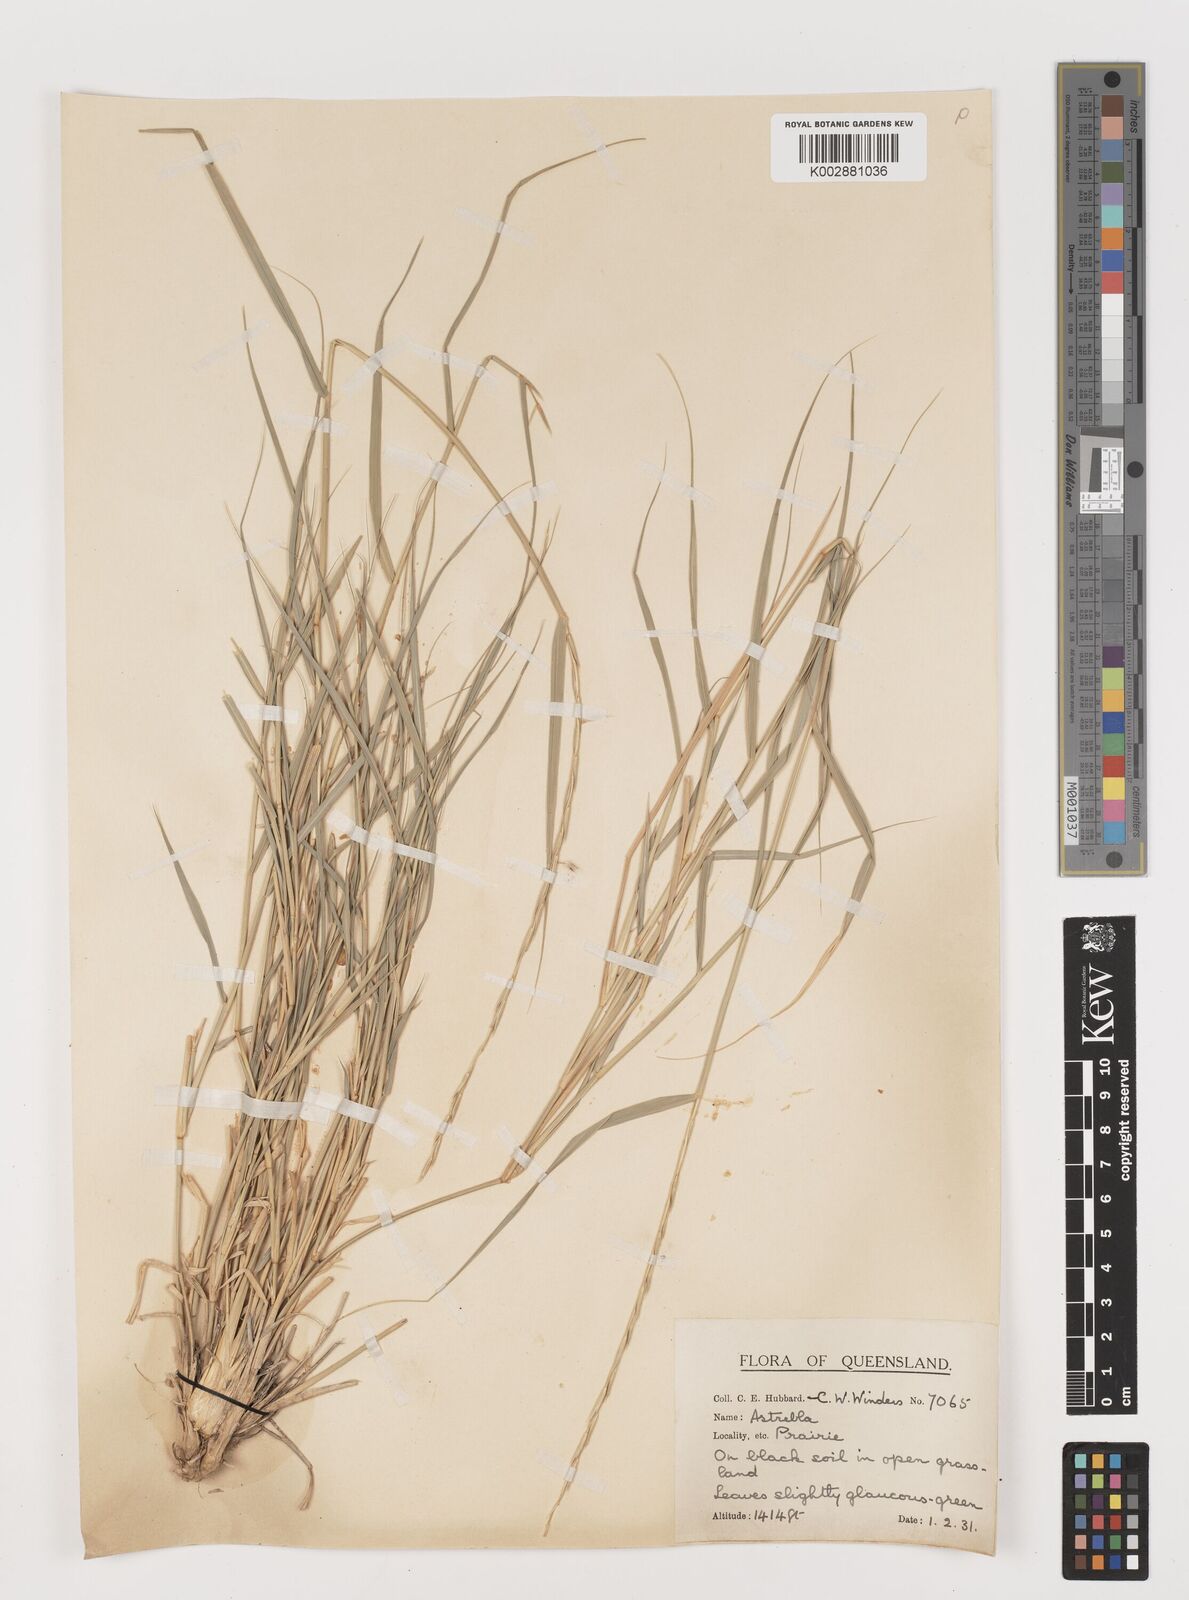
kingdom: Plantae
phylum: Tracheophyta
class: Liliopsida
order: Poales
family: Poaceae
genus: Astrebla
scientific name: Astrebla elymoides
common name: Hoop mitchell grass
